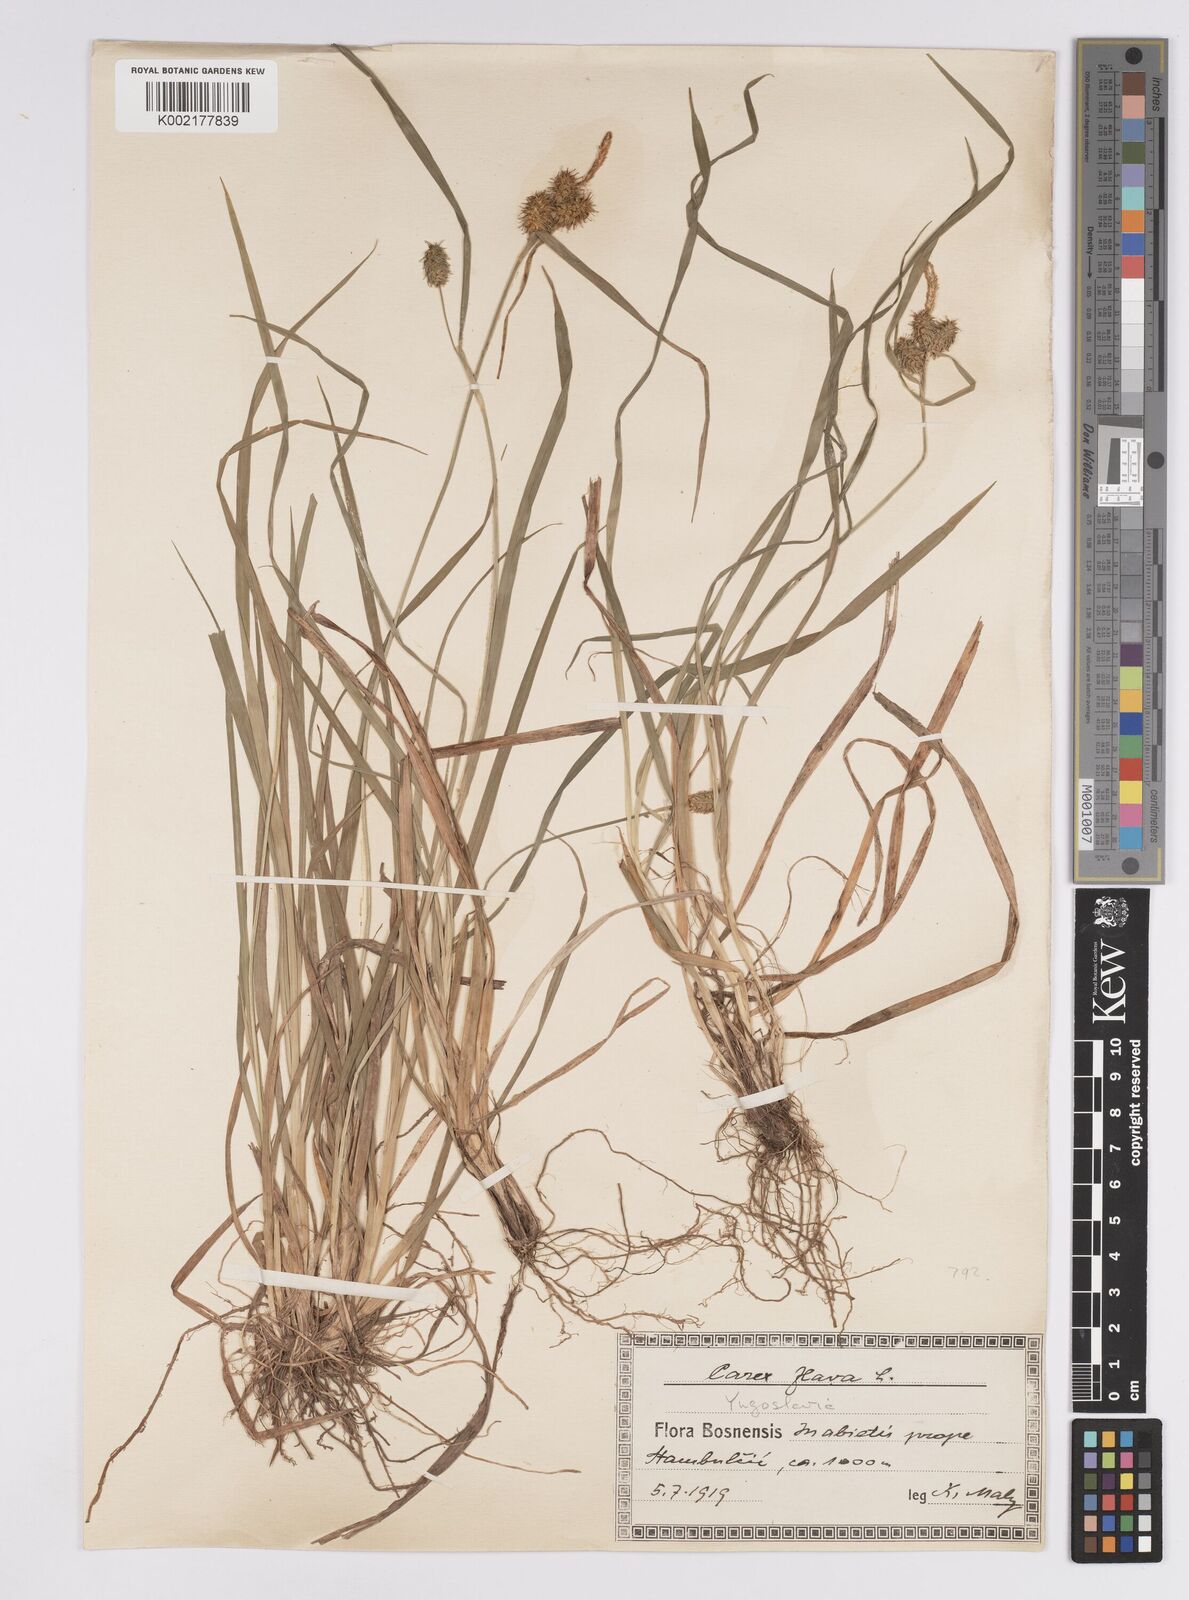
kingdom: Plantae
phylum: Tracheophyta
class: Liliopsida
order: Poales
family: Cyperaceae
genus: Carex
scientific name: Carex flava
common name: Large yellow-sedge
